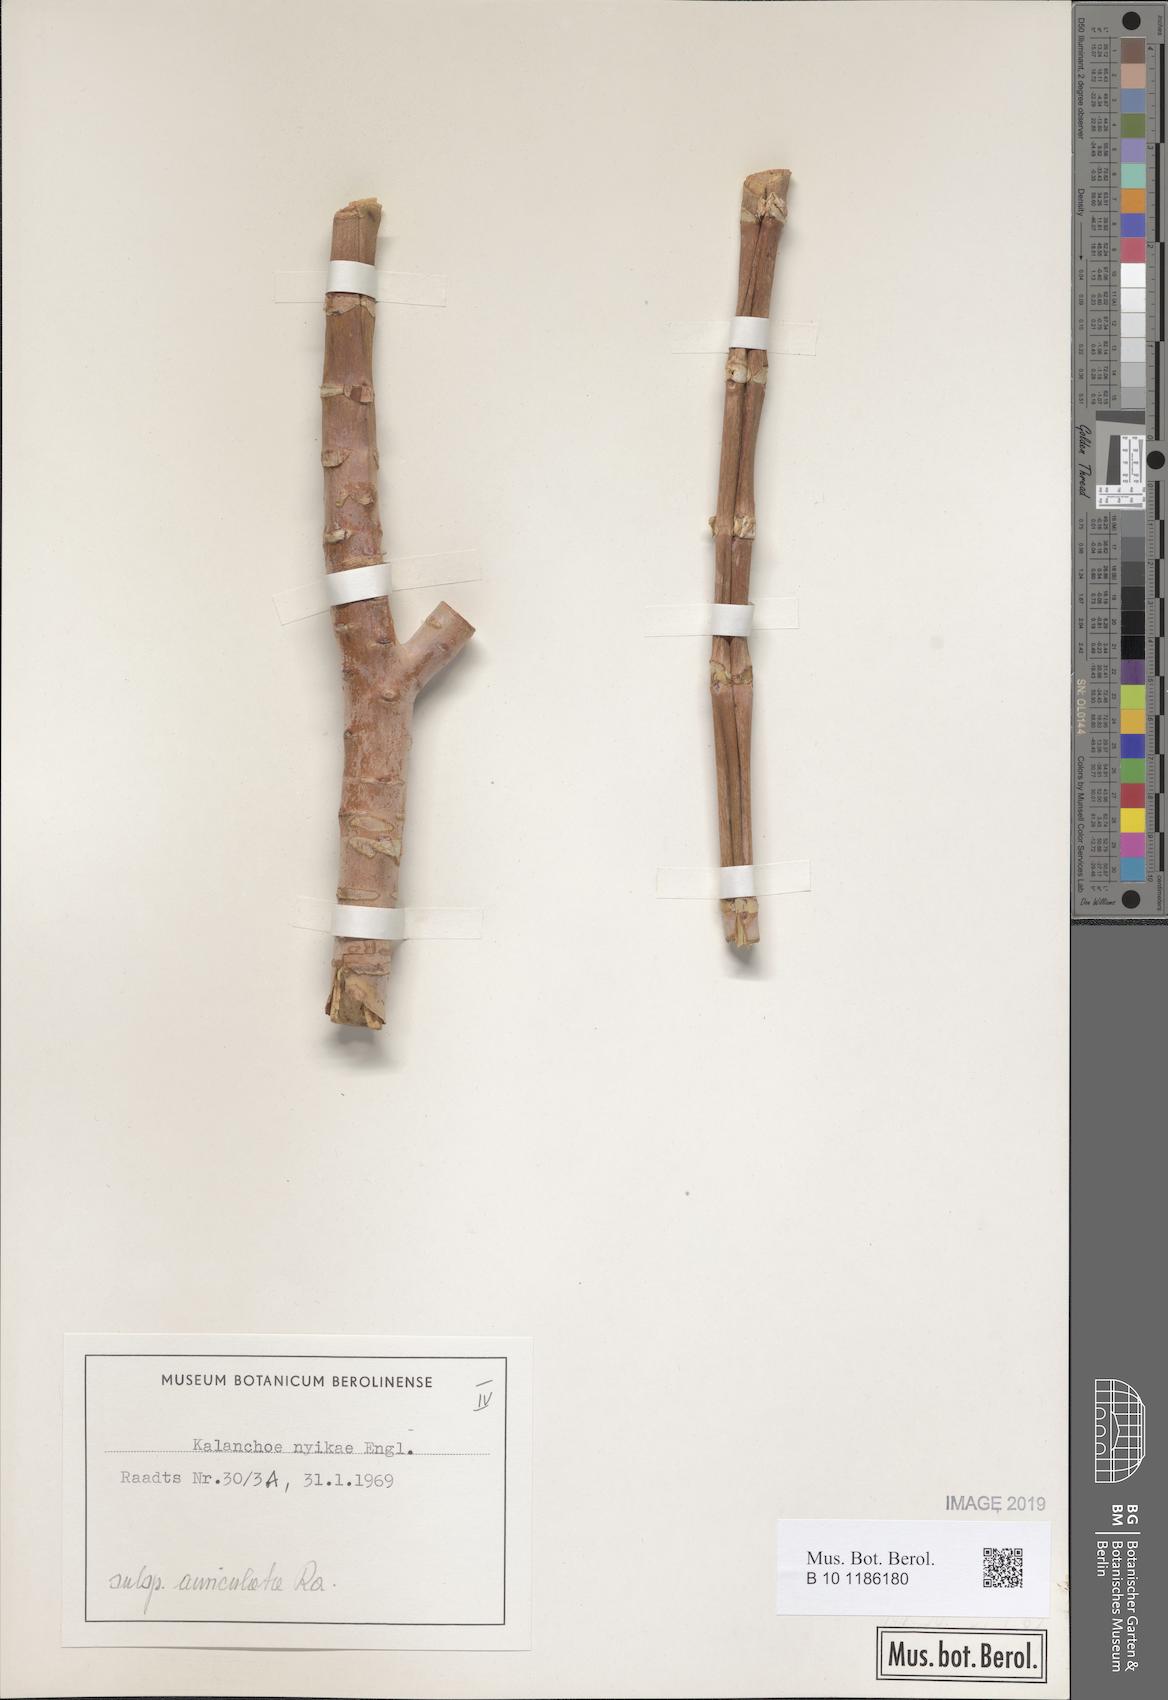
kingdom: Plantae
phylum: Tracheophyta
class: Magnoliopsida
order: Saxifragales
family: Crassulaceae
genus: Kalanchoe
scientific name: Kalanchoe auriculata
